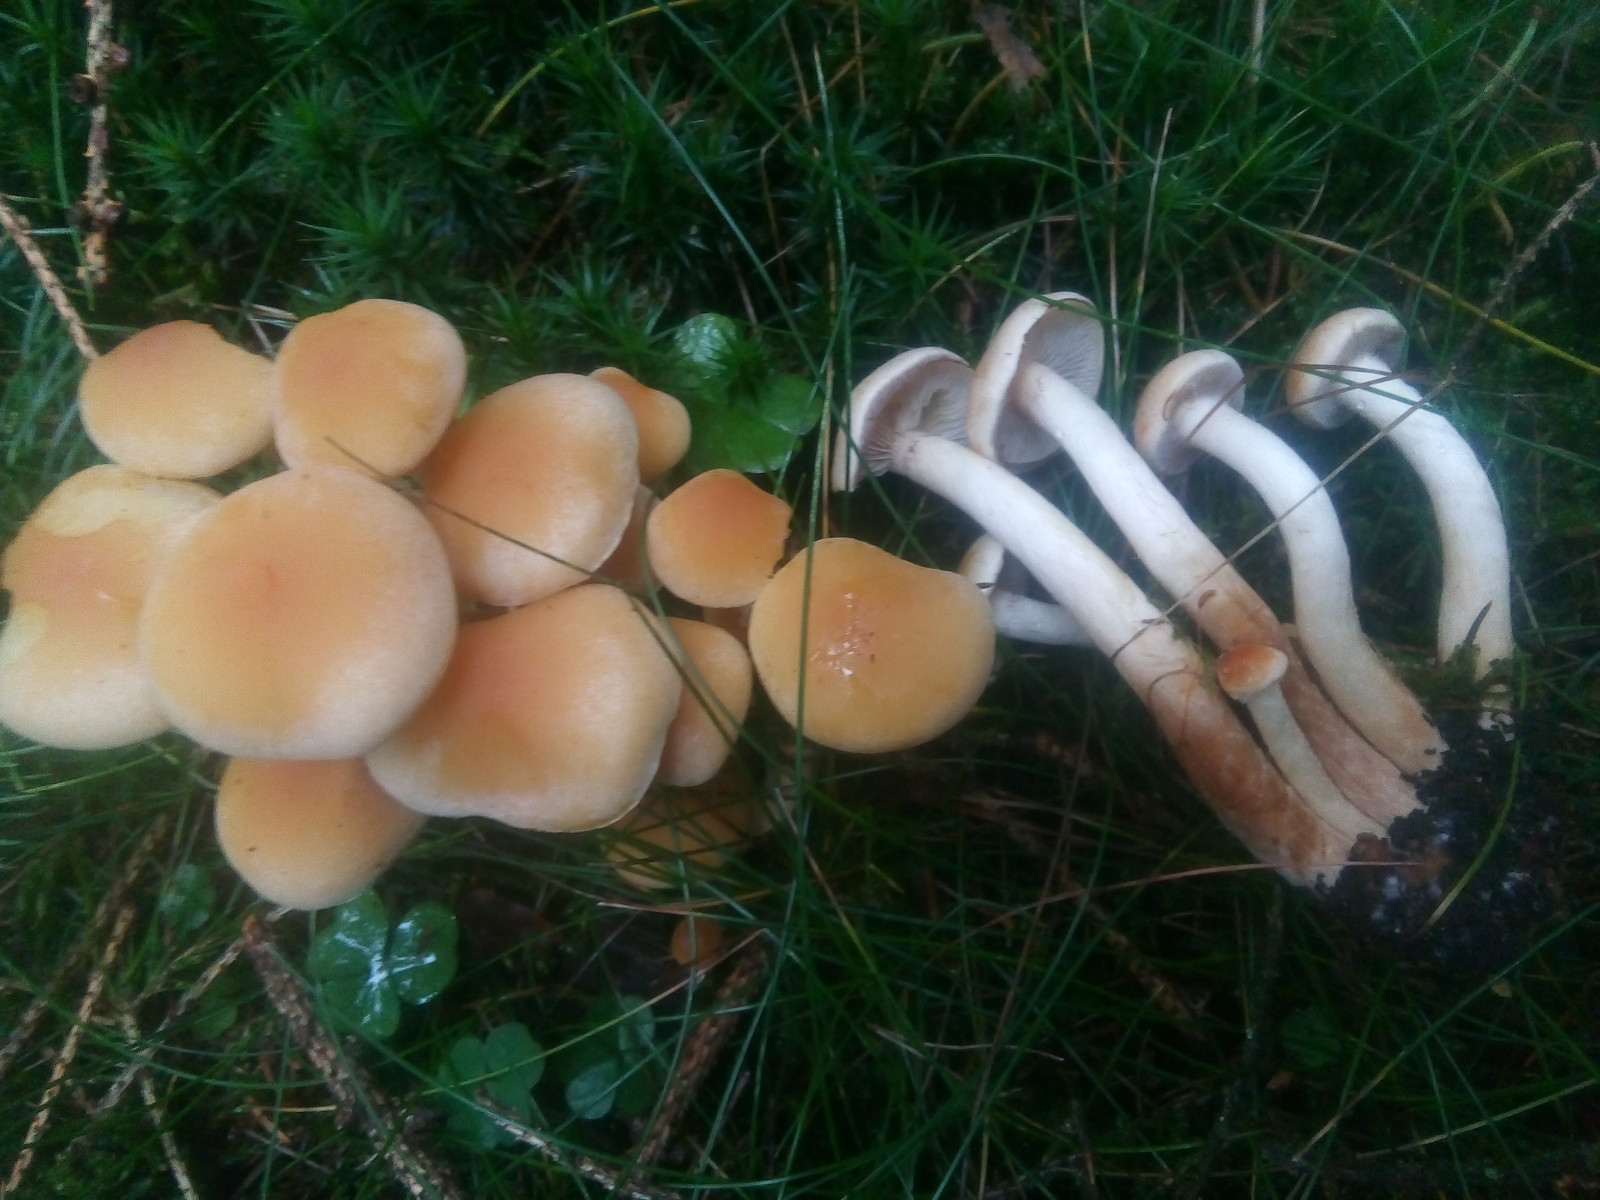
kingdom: Fungi
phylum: Basidiomycota
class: Agaricomycetes
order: Agaricales
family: Strophariaceae
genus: Hypholoma
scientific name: Hypholoma capnoides
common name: gran-svovlhat
